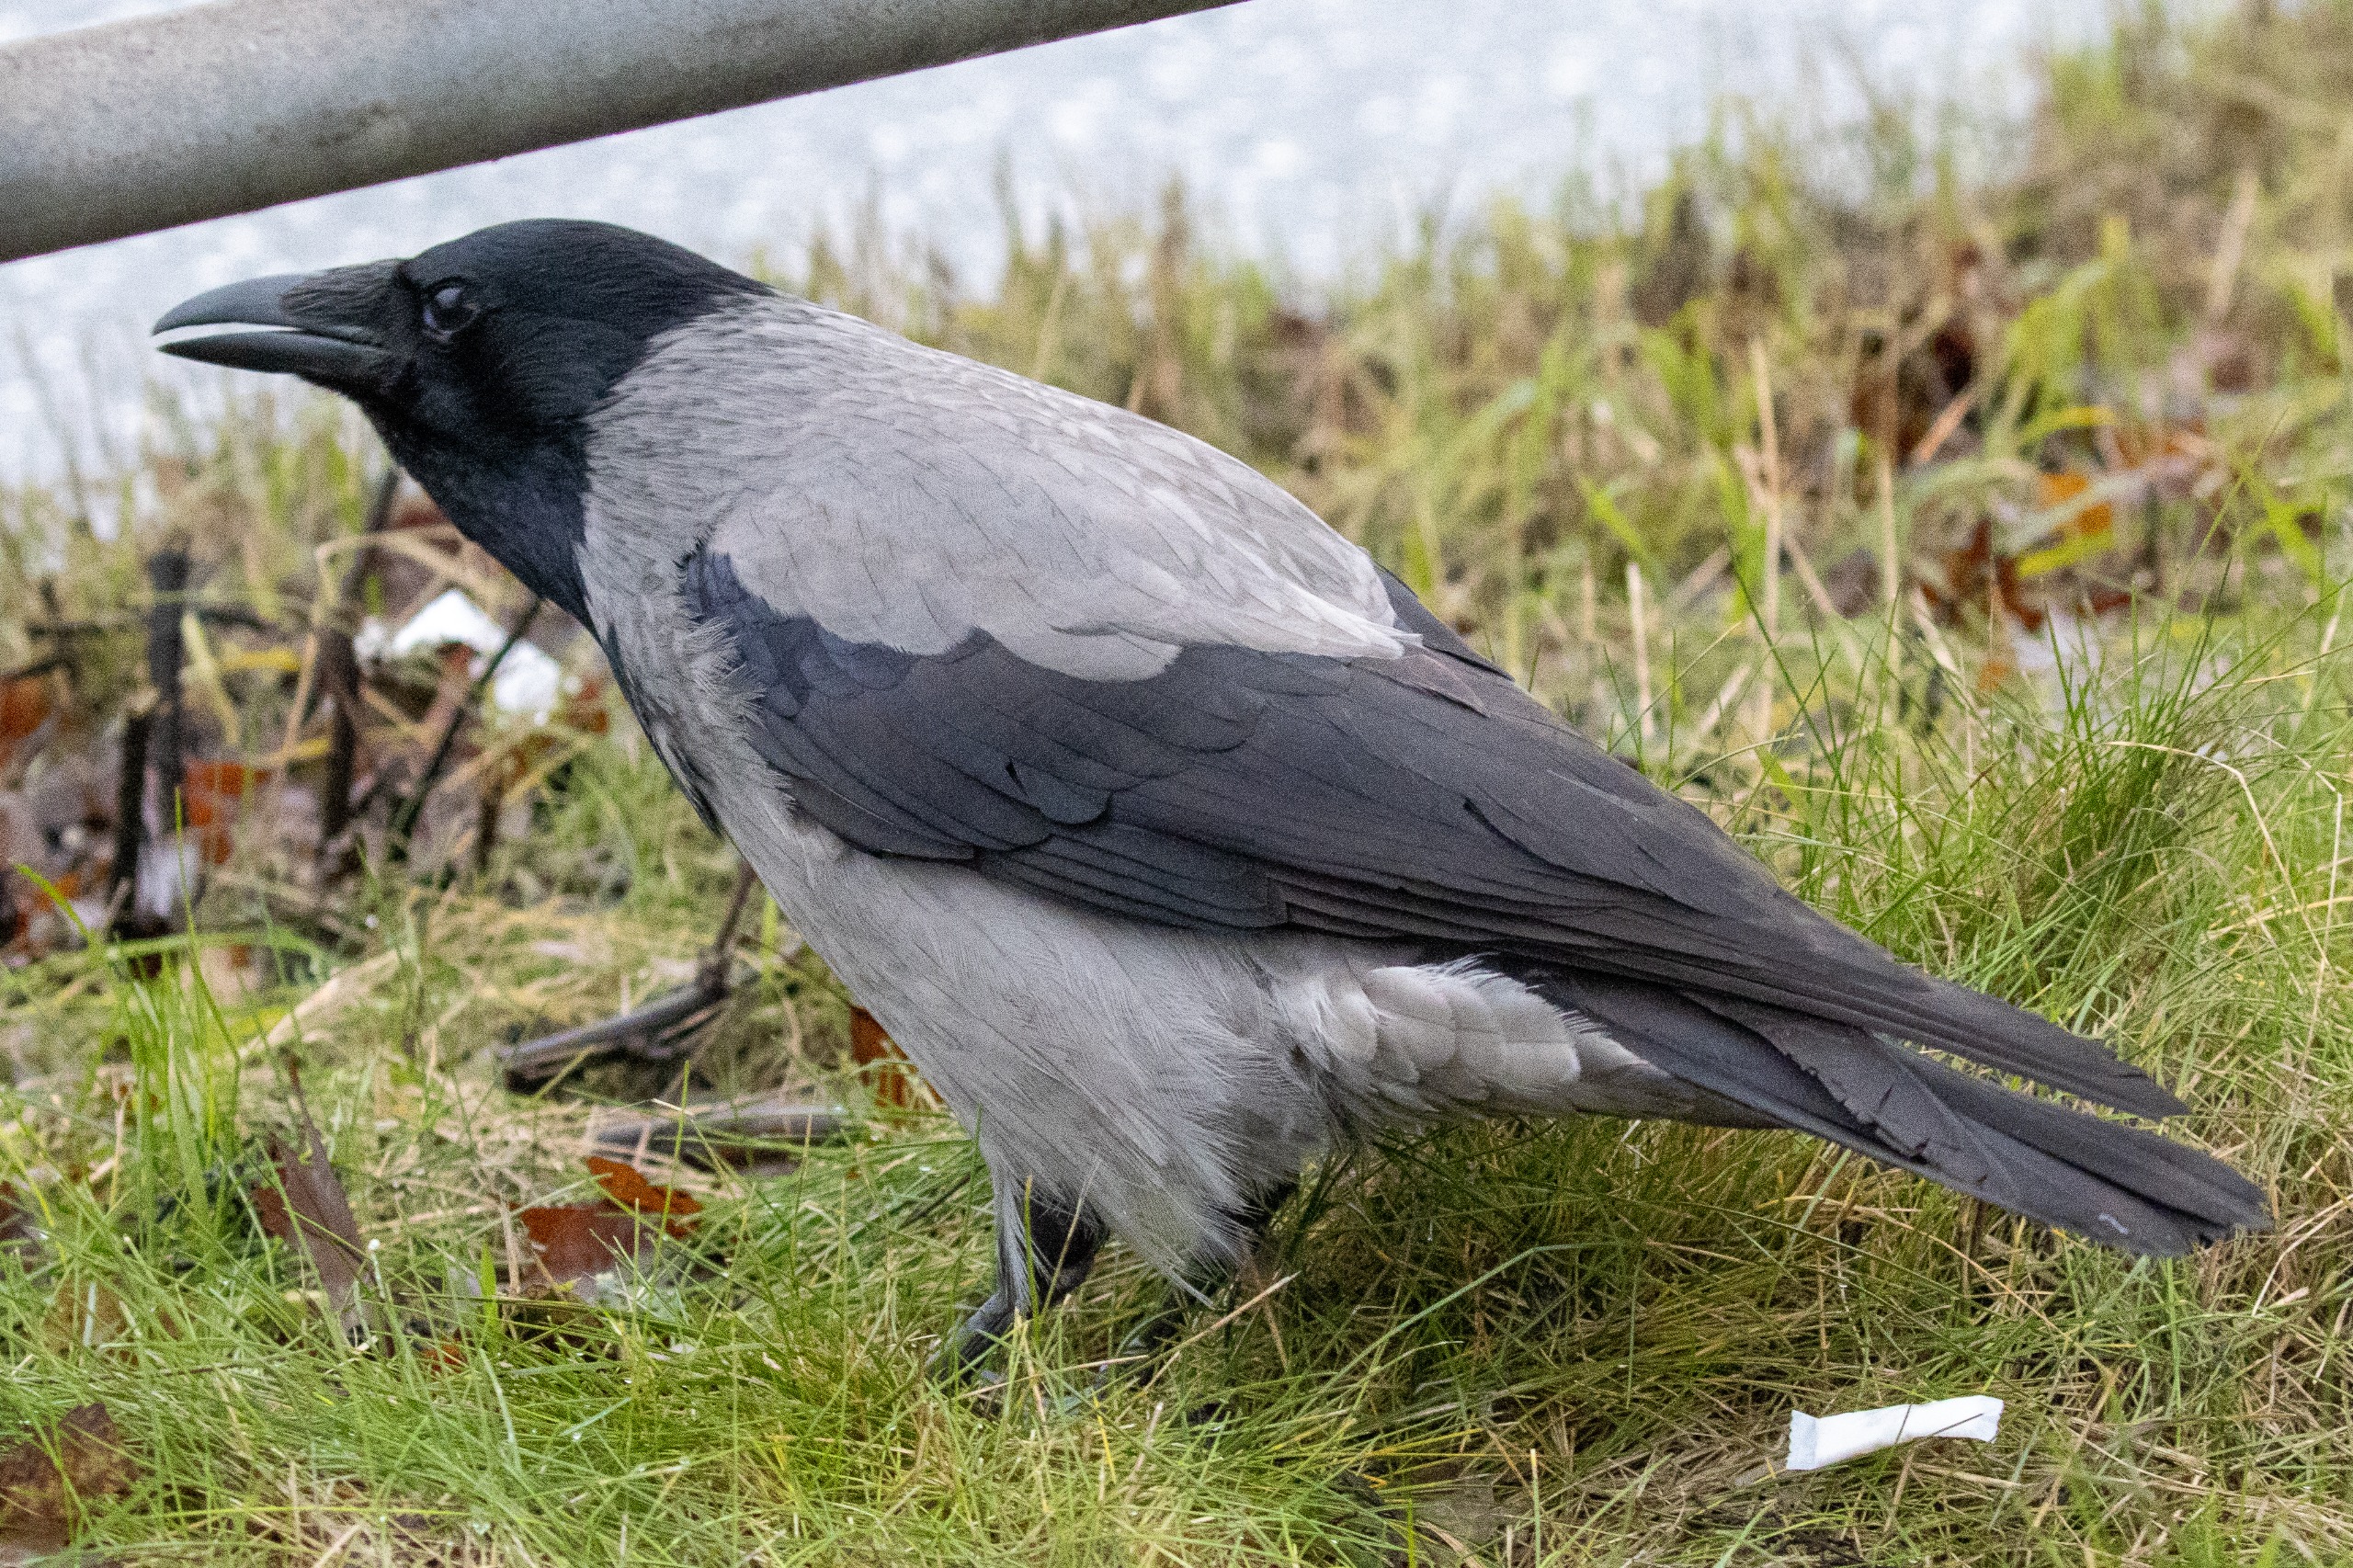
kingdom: Animalia
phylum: Chordata
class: Aves
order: Passeriformes
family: Corvidae
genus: Corvus
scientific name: Corvus cornix
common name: Gråkrage
